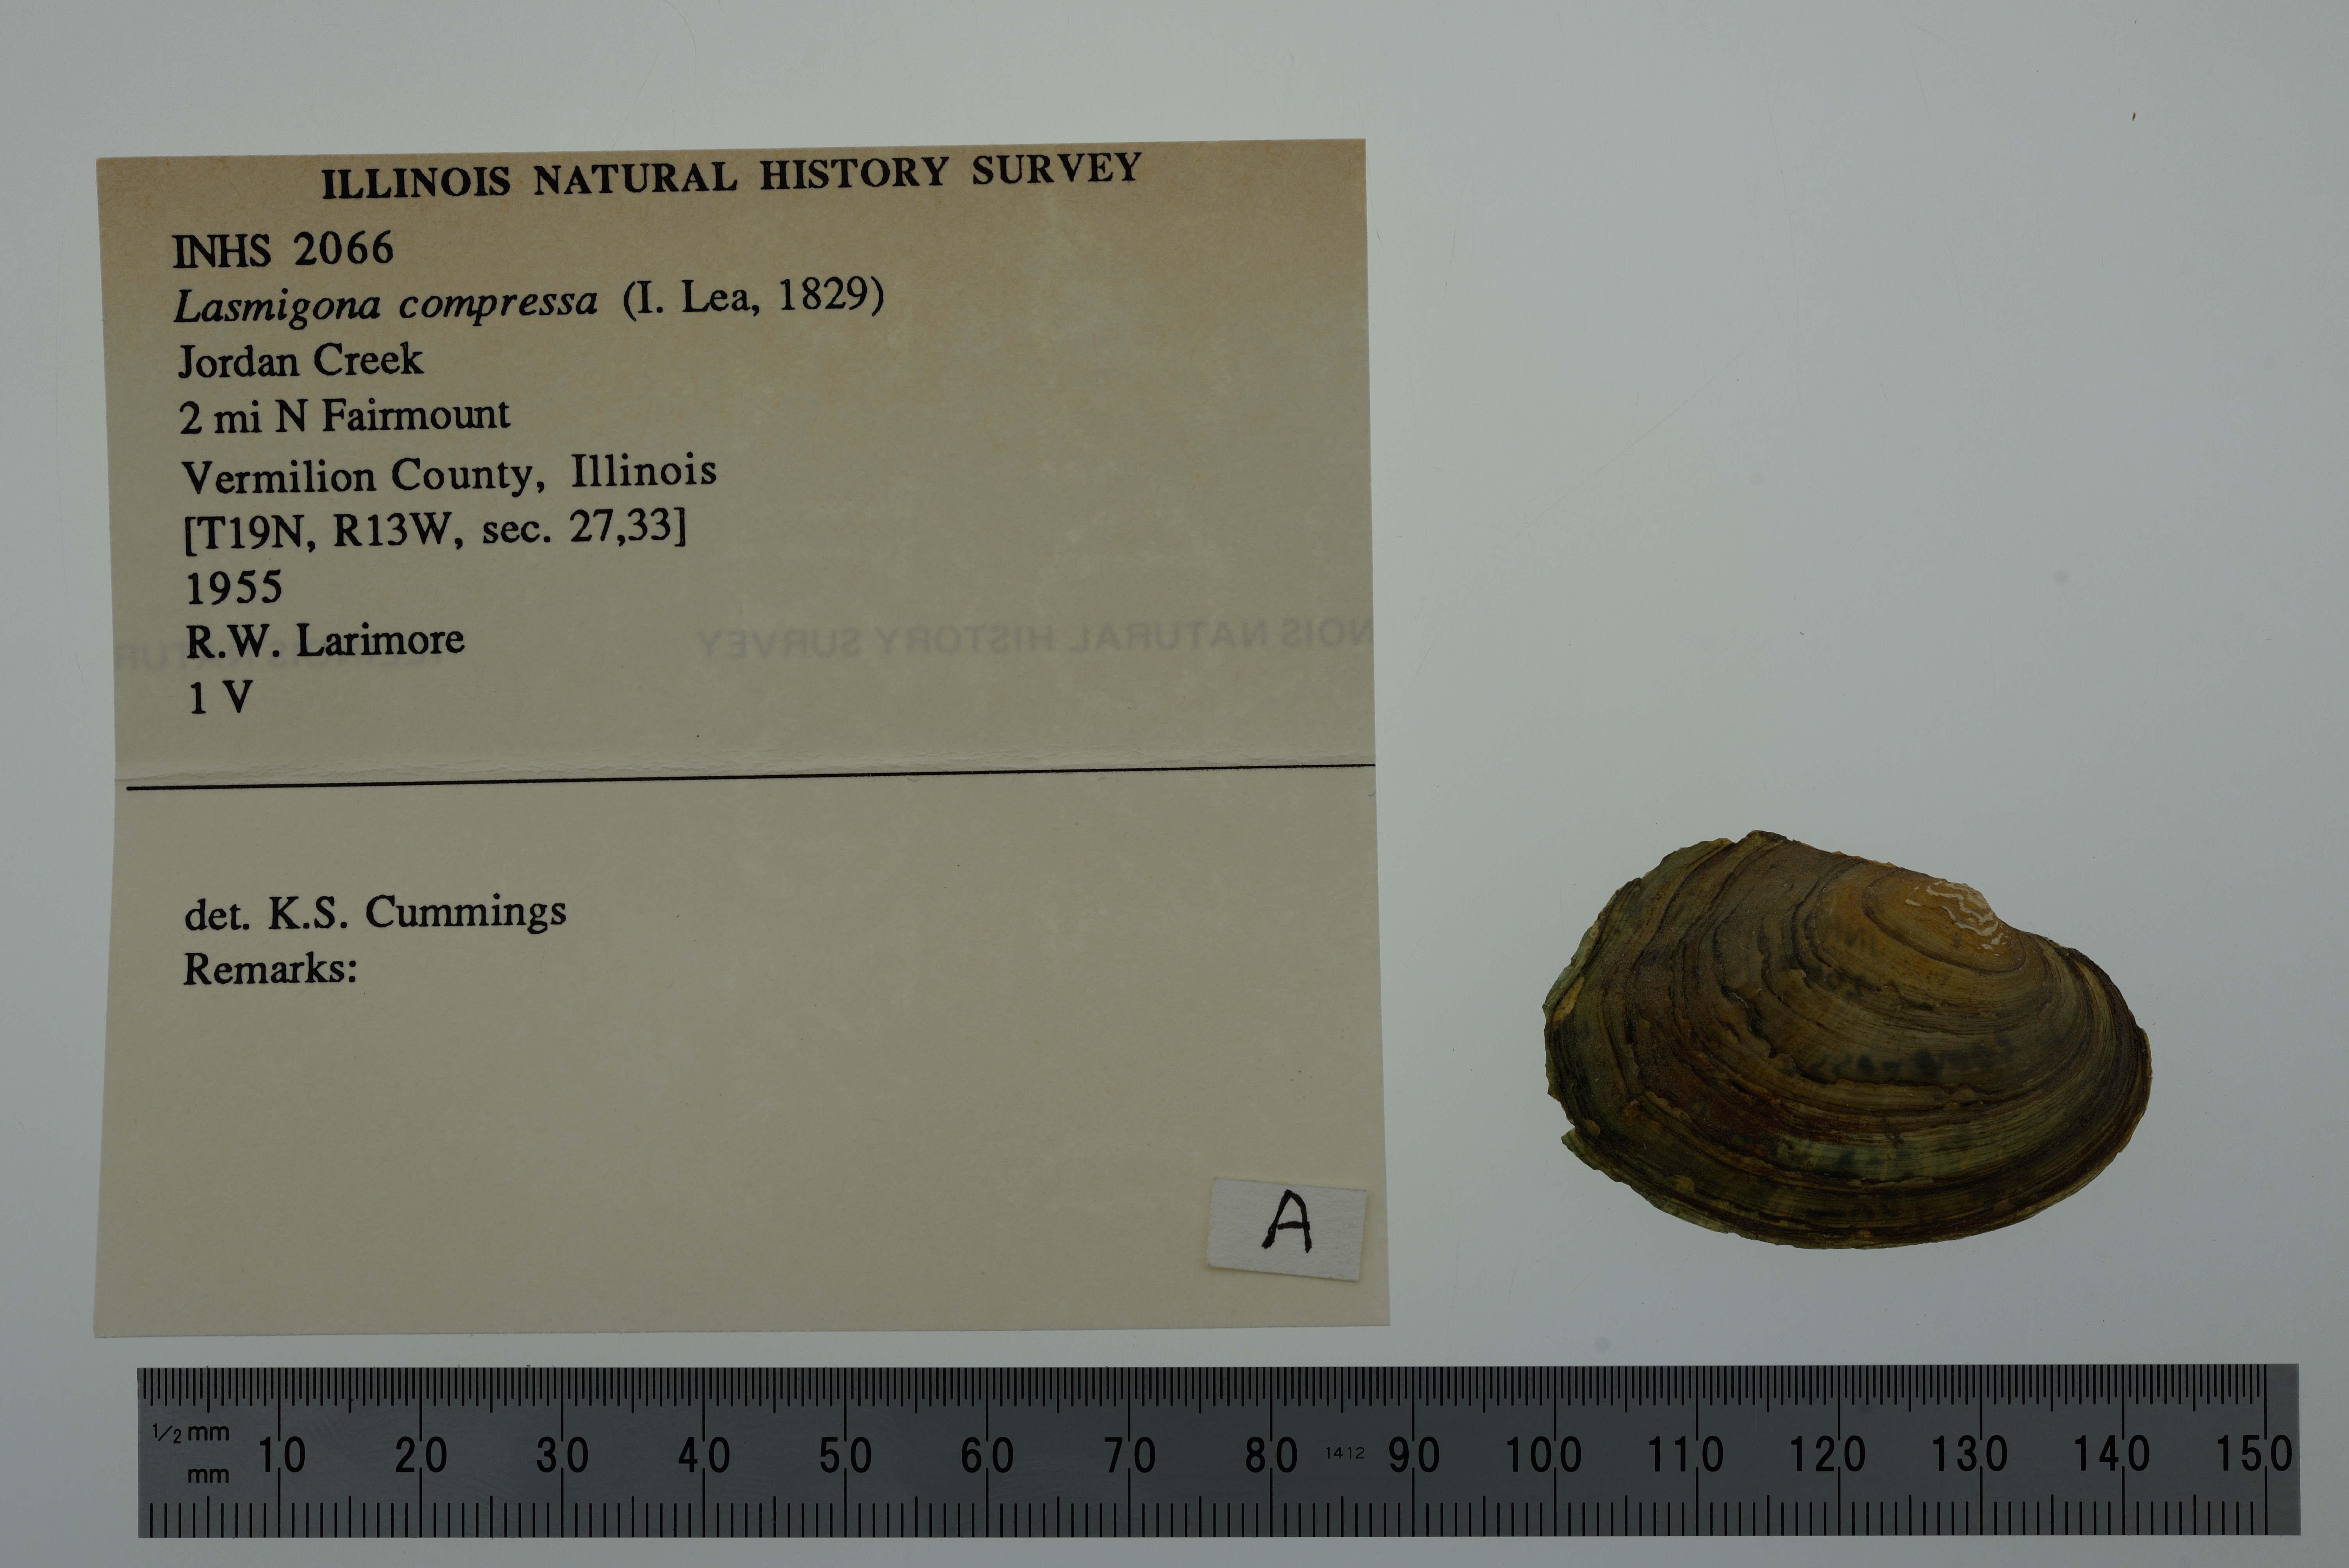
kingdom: Animalia
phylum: Mollusca
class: Bivalvia
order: Unionida
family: Unionidae
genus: Lasmigona
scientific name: Lasmigona compressa
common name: Creek heelsplitter
